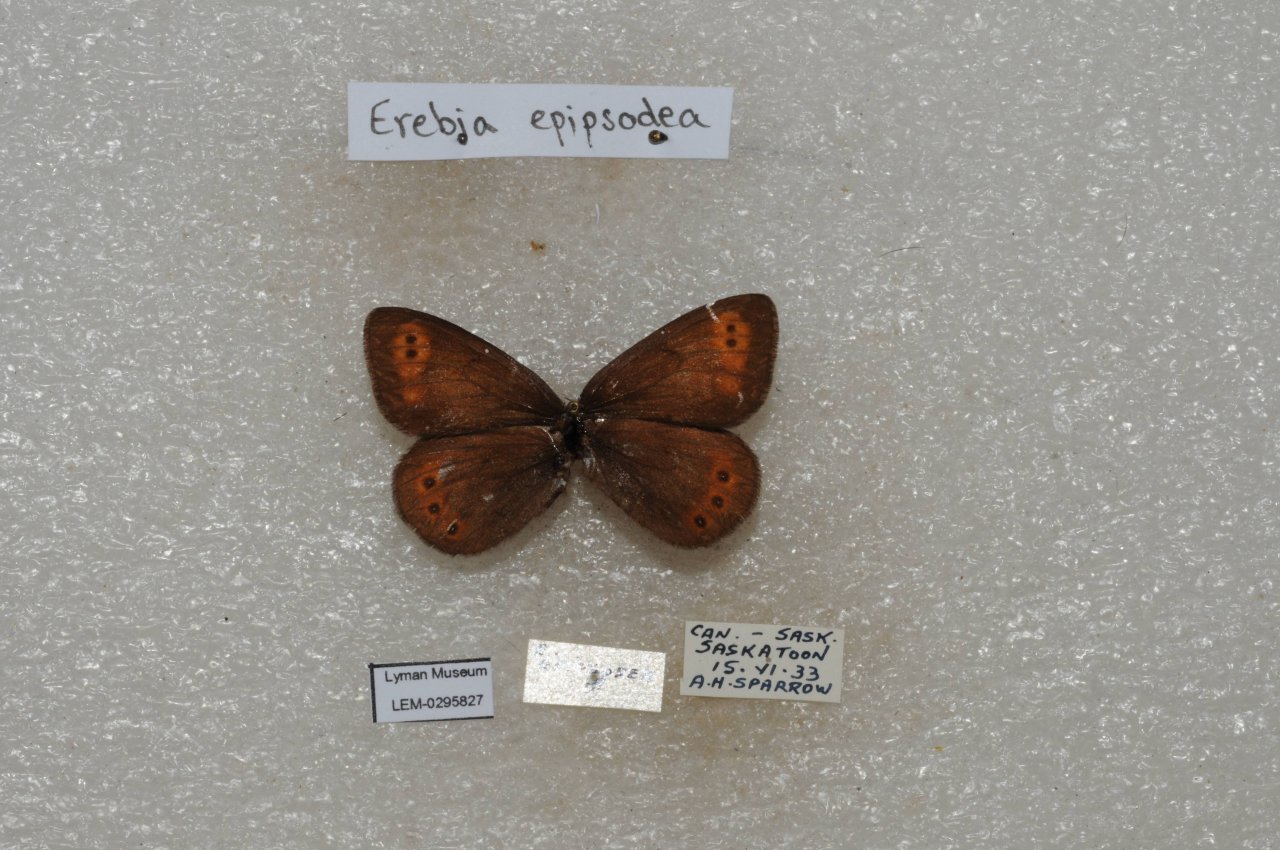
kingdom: Animalia
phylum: Arthropoda
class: Insecta
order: Lepidoptera
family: Nymphalidae
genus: Erebia
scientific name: Erebia epipsodea
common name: Common Alpine
